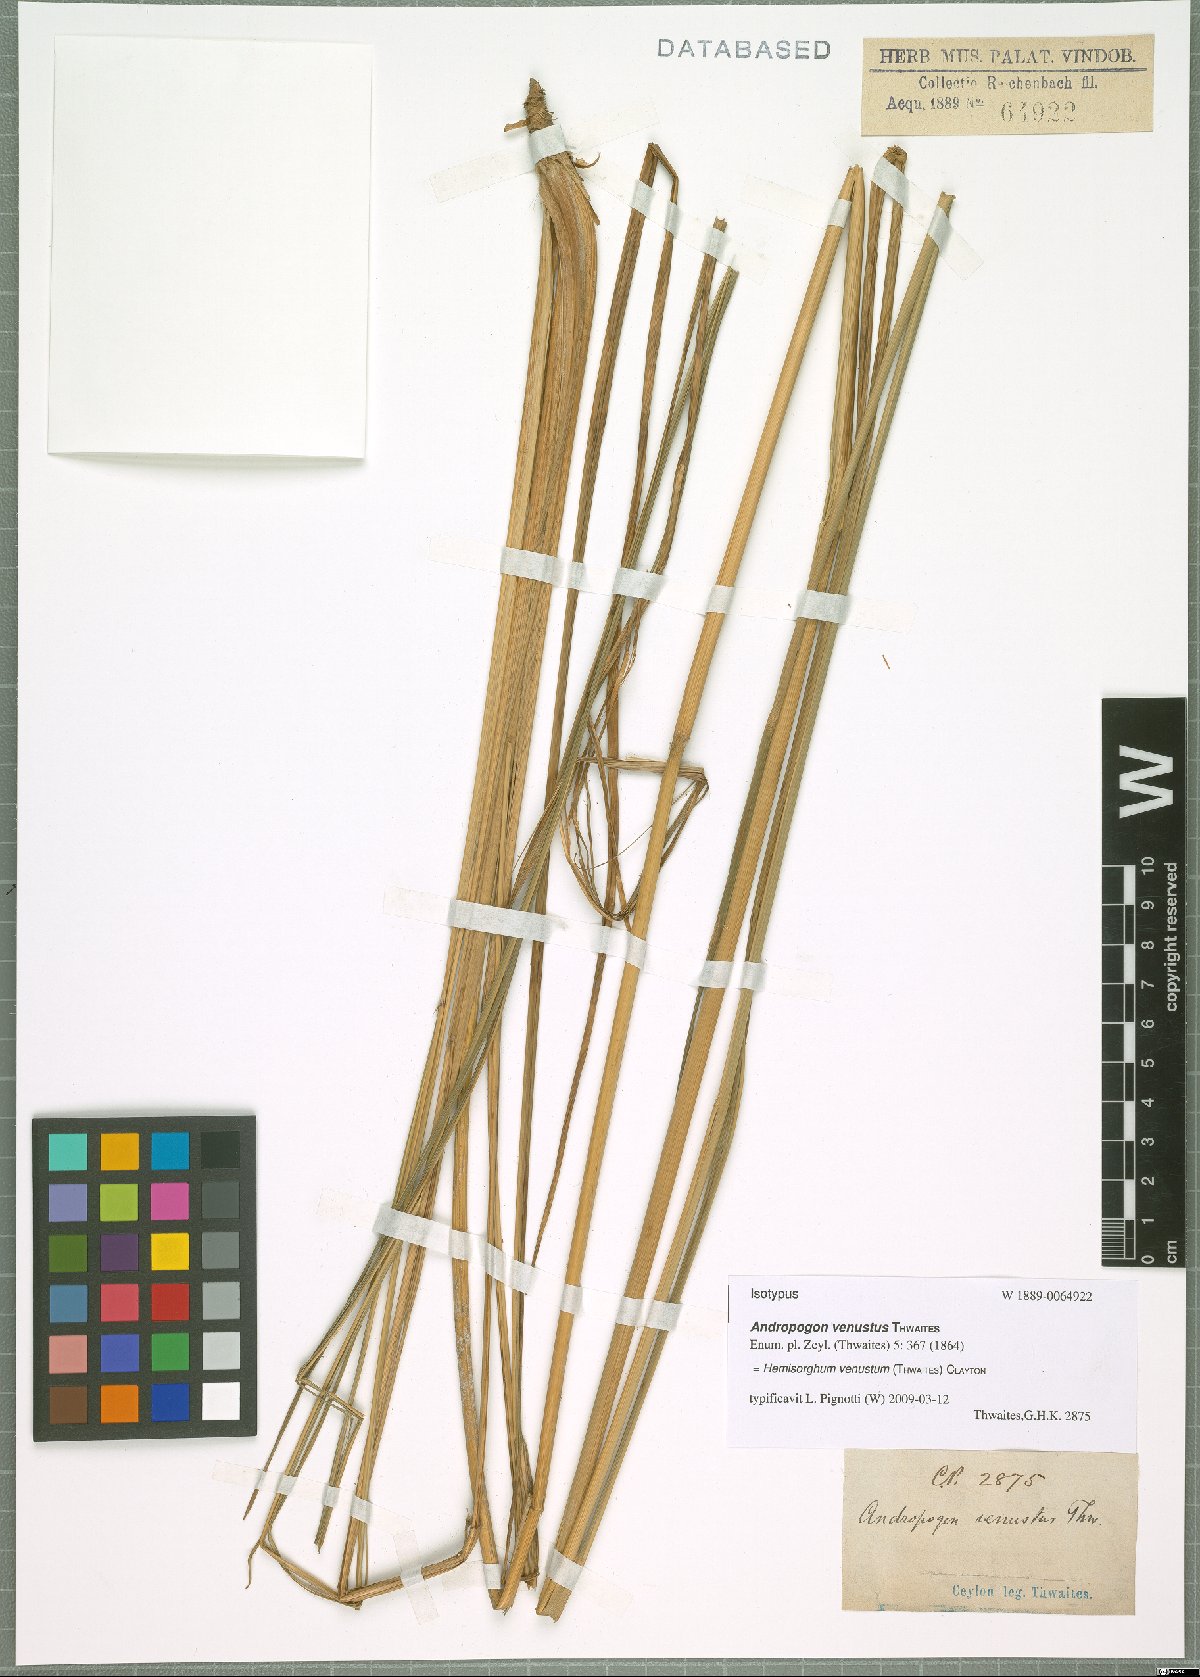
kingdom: Plantae
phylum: Tracheophyta
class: Liliopsida
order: Poales
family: Poaceae
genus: Hemisorghum
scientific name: Hemisorghum venustum
